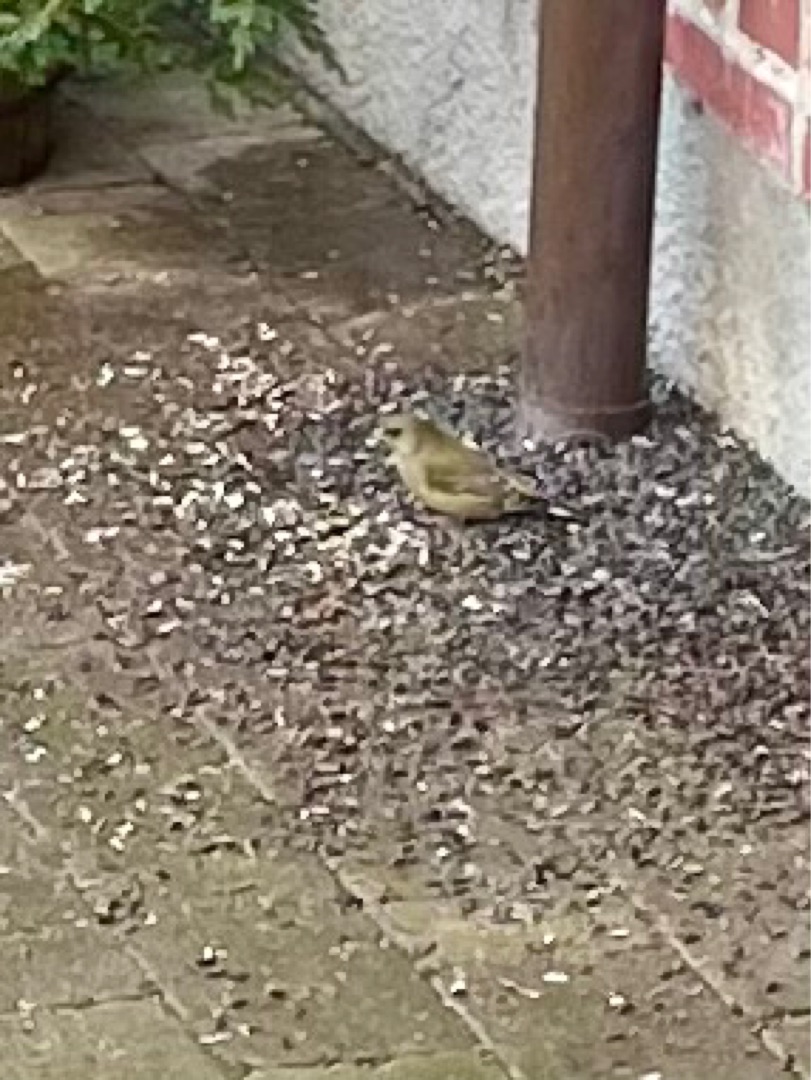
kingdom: Plantae
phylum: Tracheophyta
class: Liliopsida
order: Poales
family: Poaceae
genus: Chloris
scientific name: Chloris chloris
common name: Grønirisk
